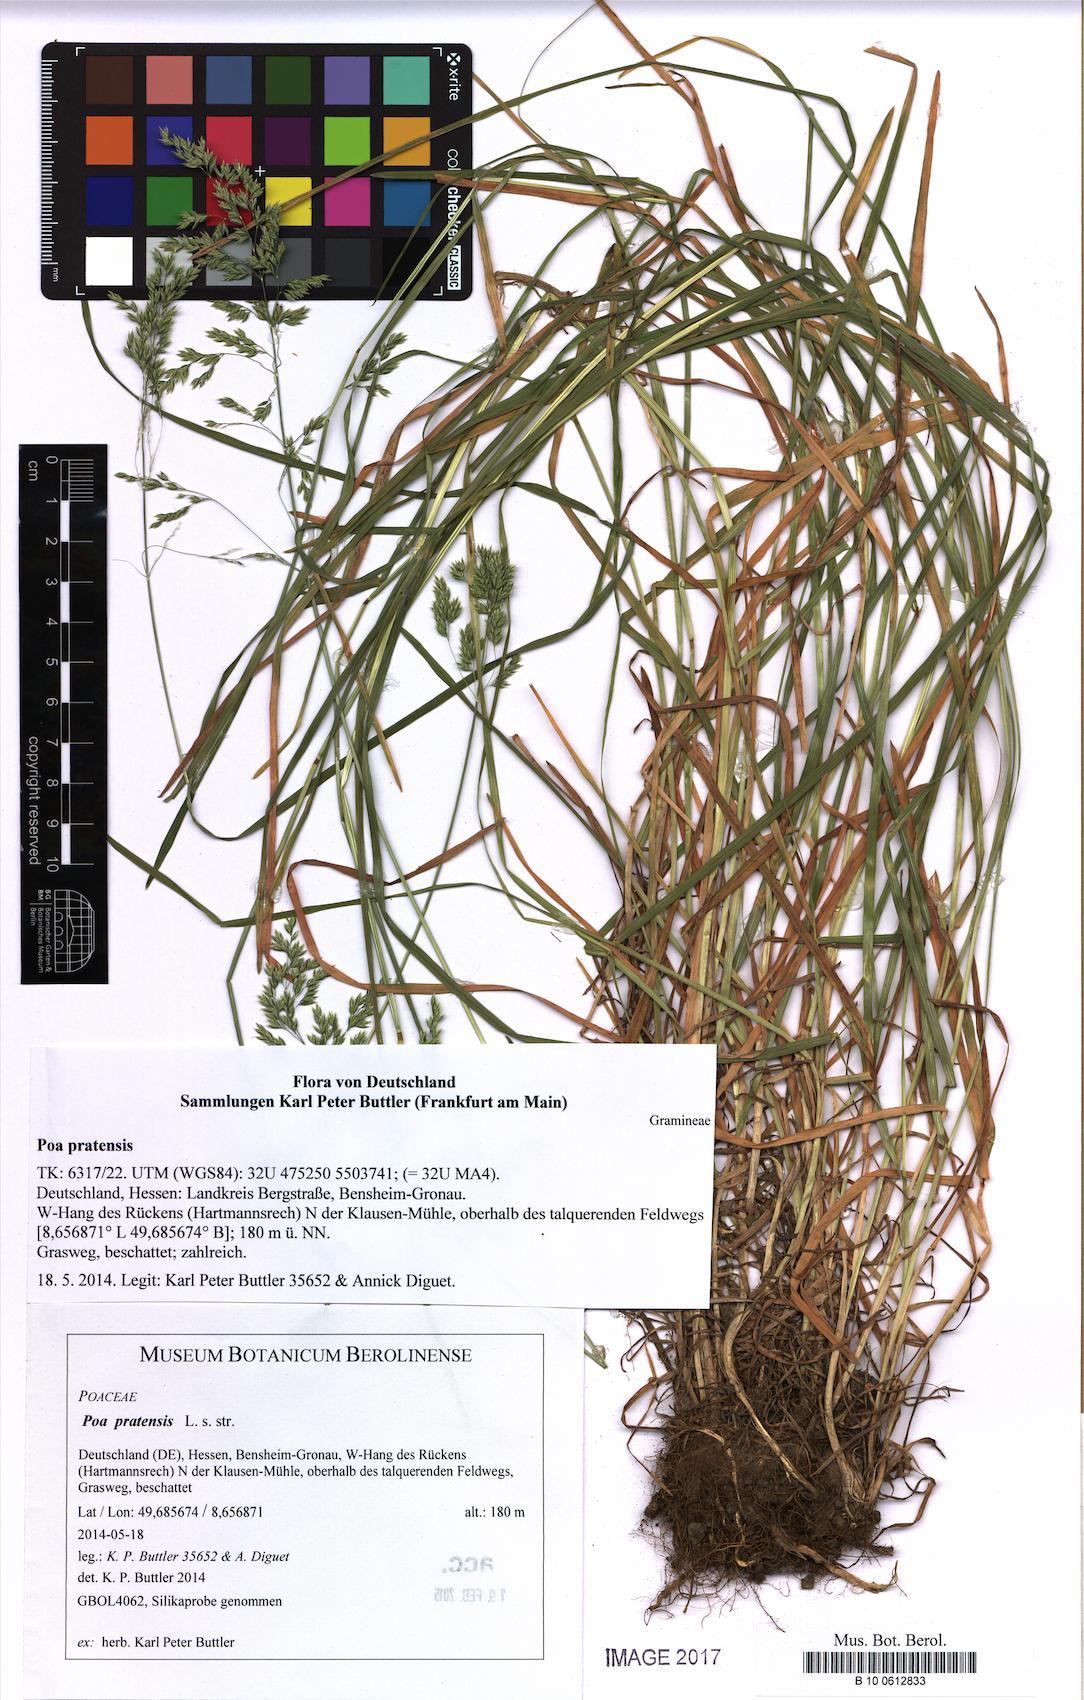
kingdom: Plantae
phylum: Tracheophyta
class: Liliopsida
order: Poales
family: Poaceae
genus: Poa
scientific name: Poa pratensis
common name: Kentucky bluegrass
